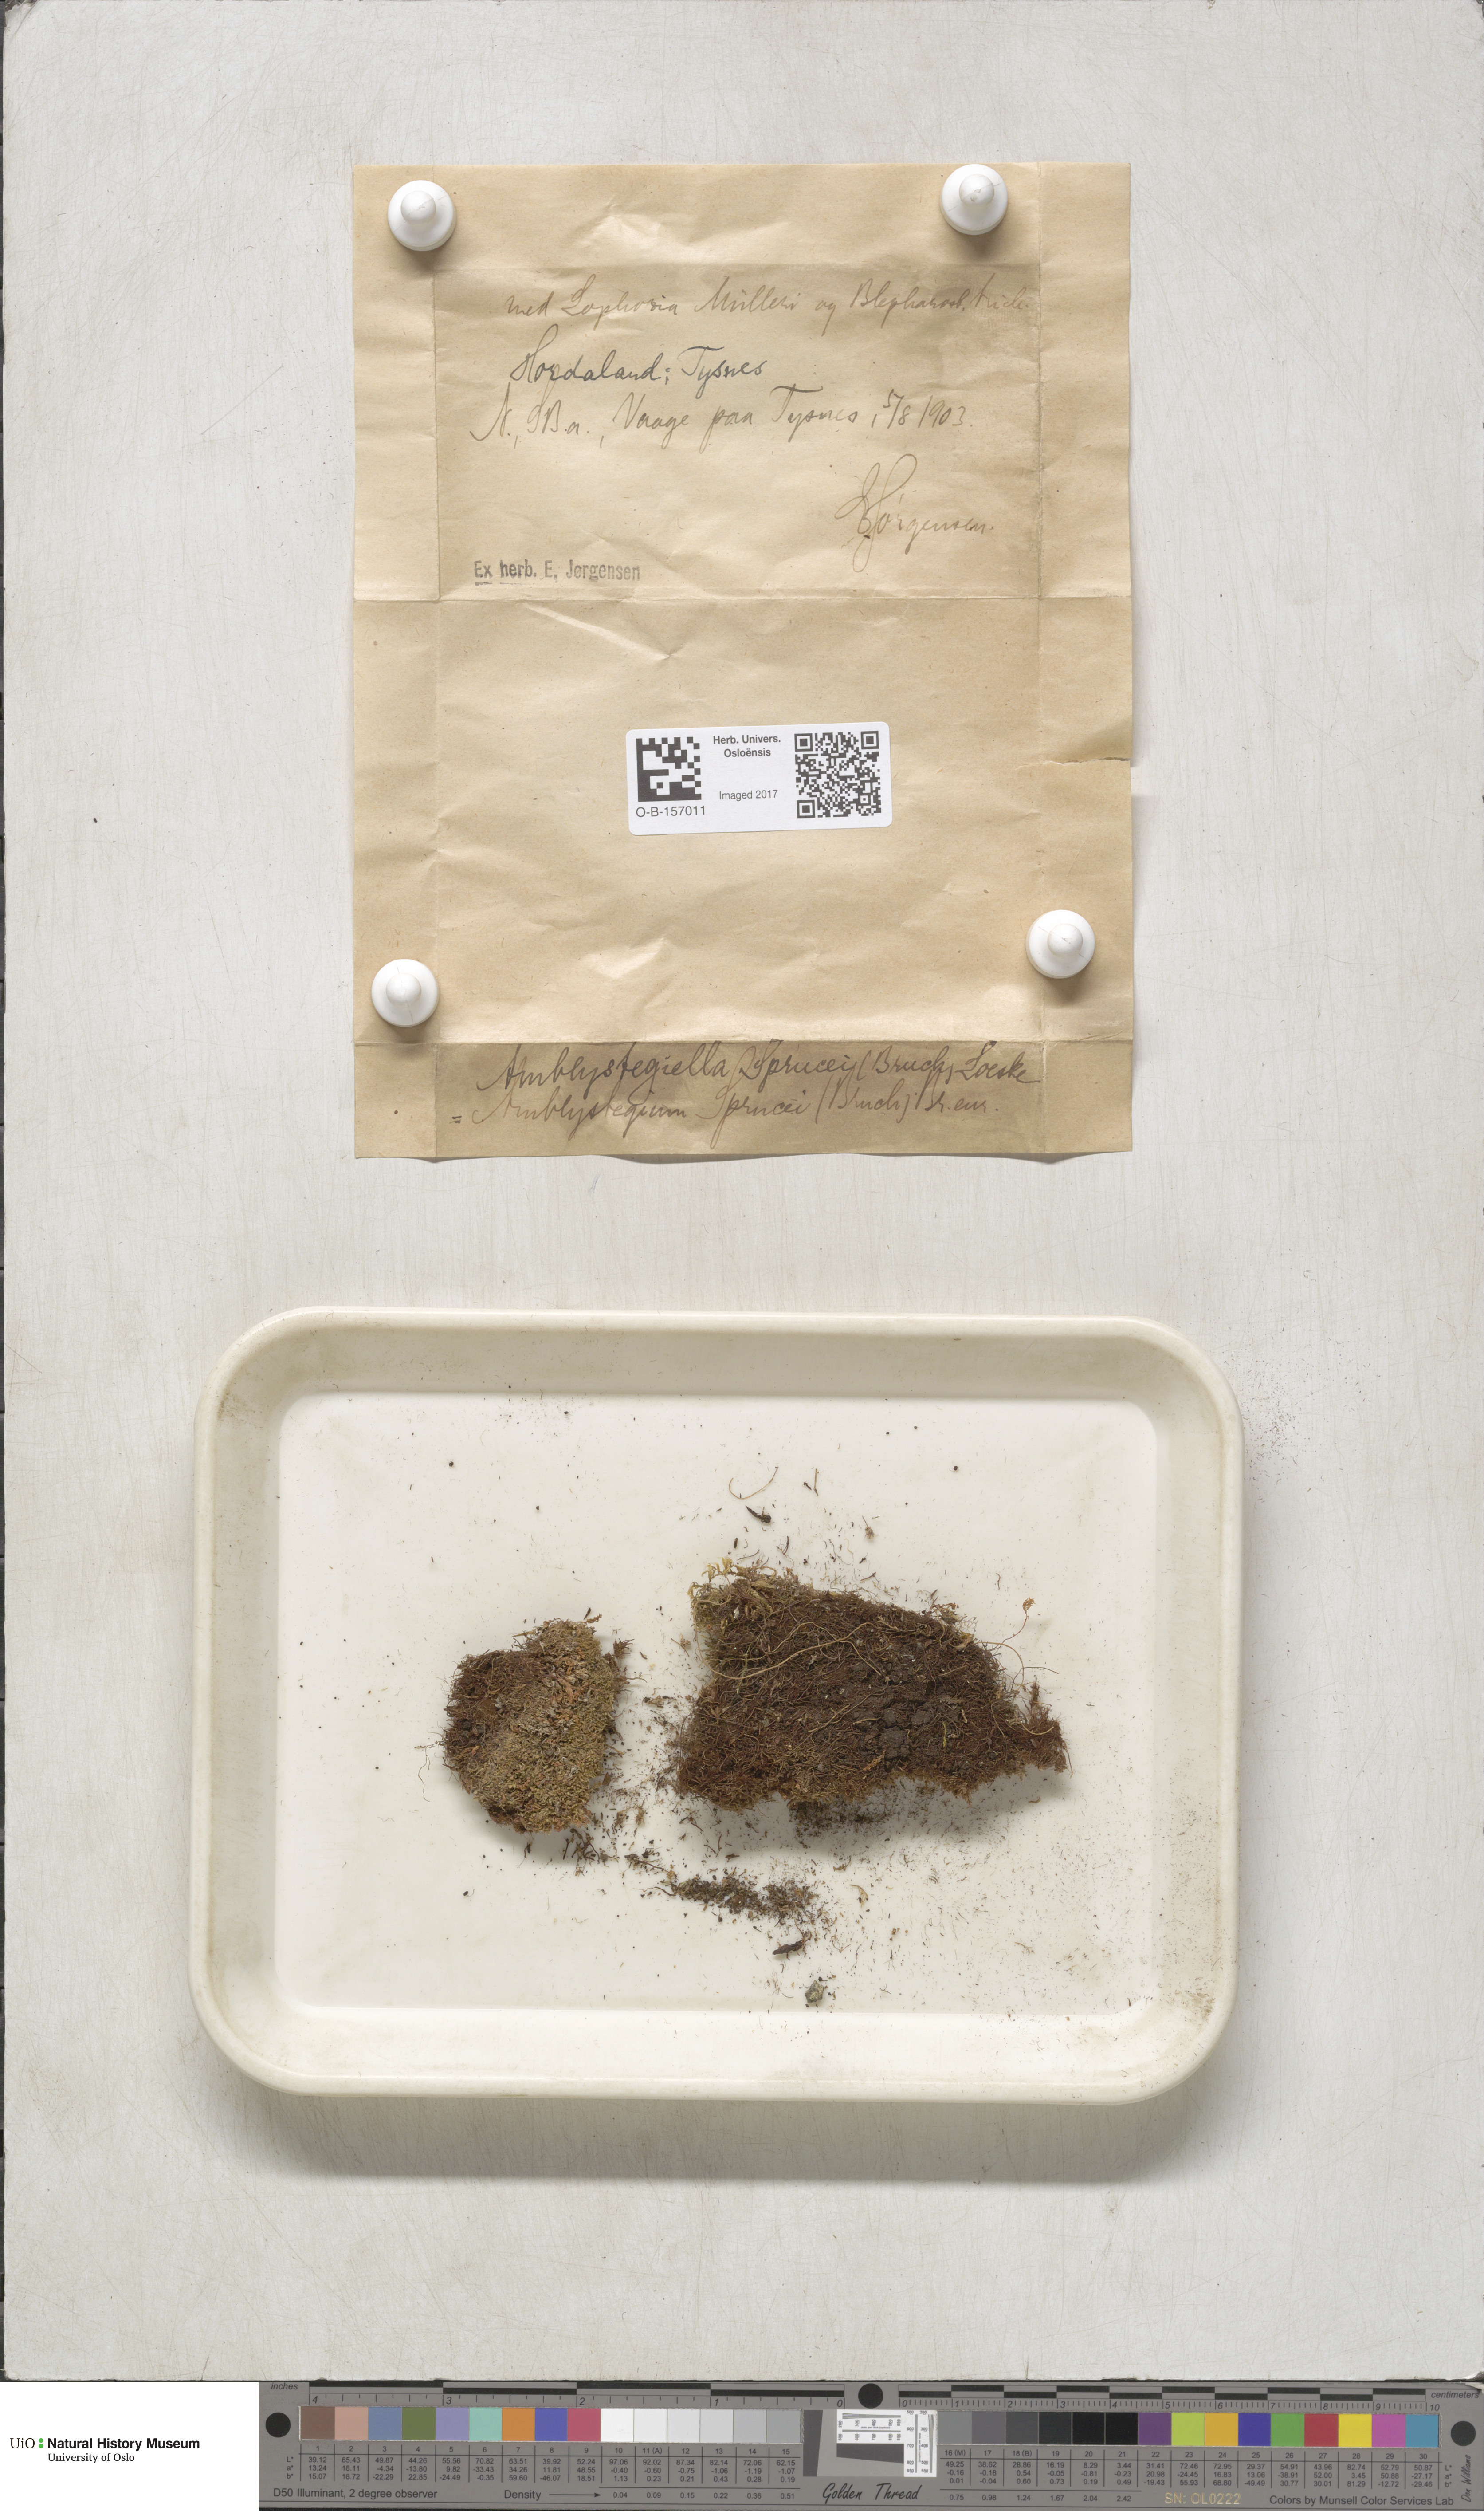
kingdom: Plantae
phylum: Bryophyta
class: Bryopsida
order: Hypnales
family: Plagiotheciaceae
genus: Platydictya
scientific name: Platydictya jungermannioides
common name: False willow moss
